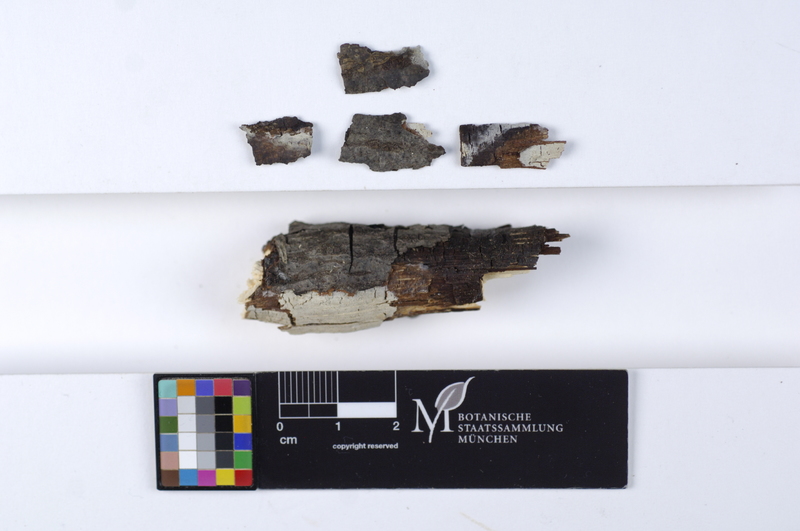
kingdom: Fungi
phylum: Basidiomycota
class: Agaricomycetes
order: Corticiales
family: Corticiaceae
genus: Mycobernardia
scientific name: Mycobernardia incrustans
